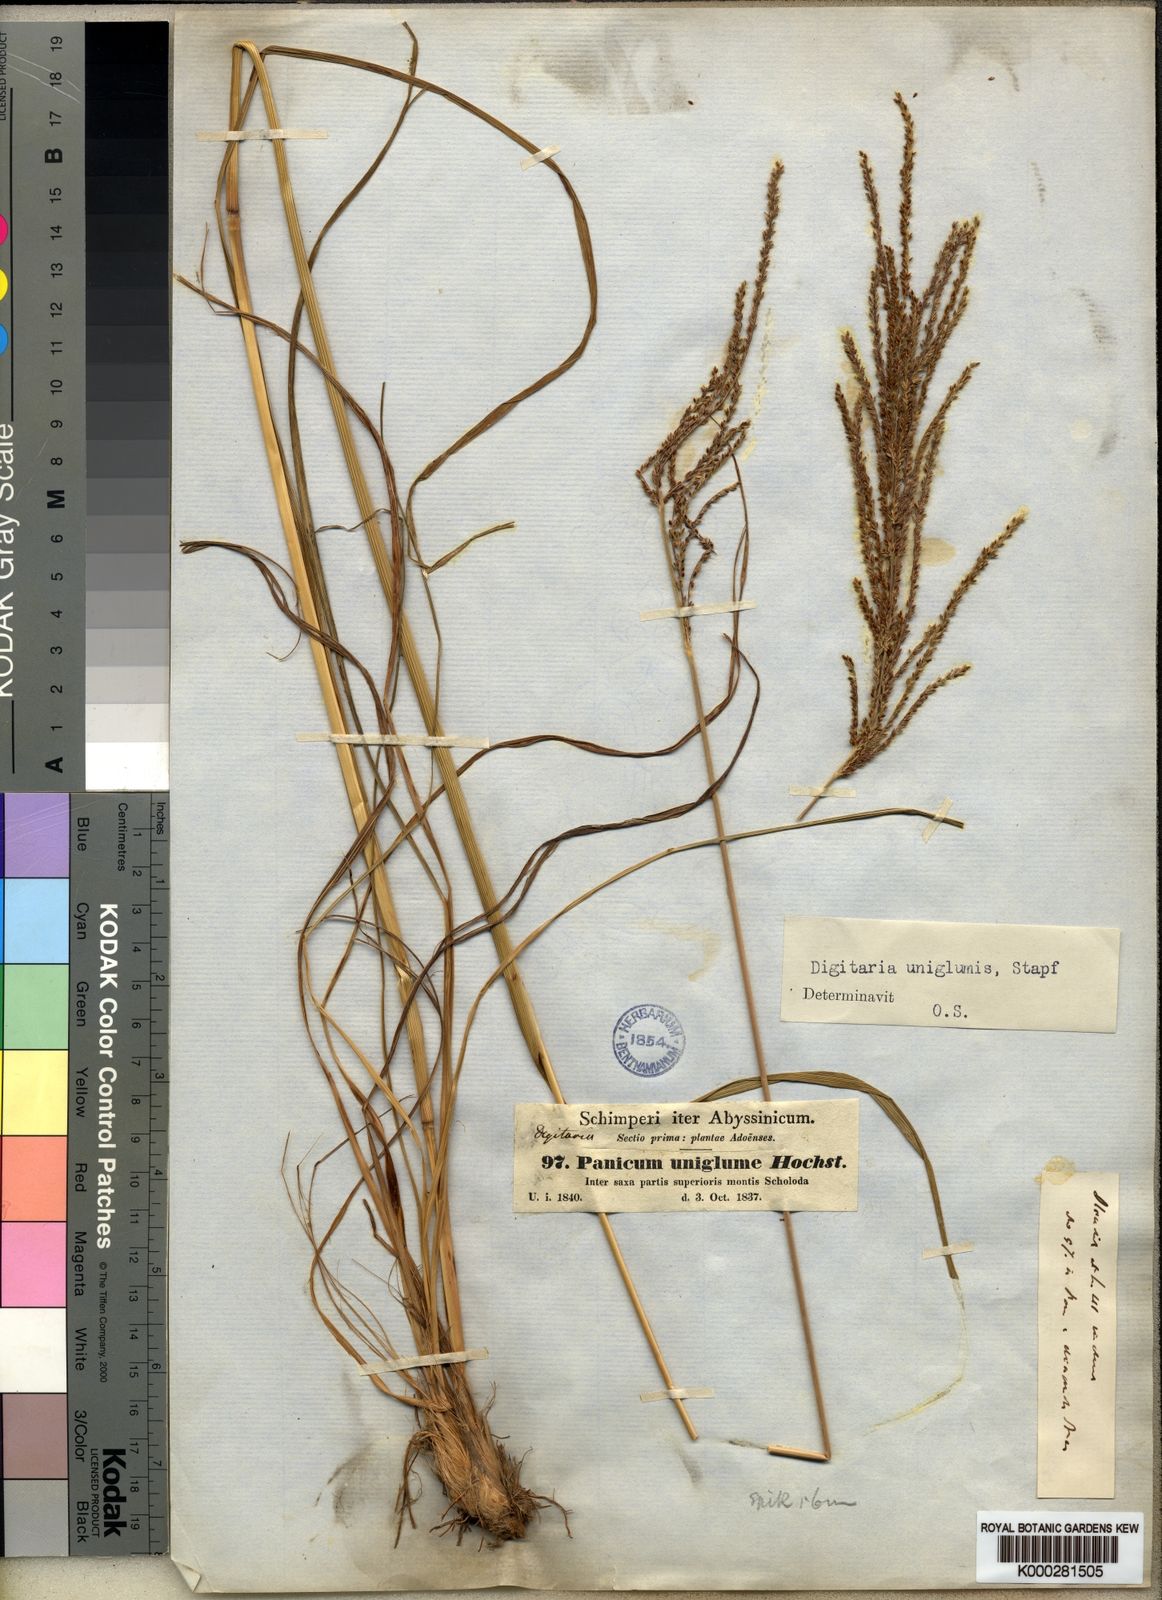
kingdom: Plantae
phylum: Tracheophyta
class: Liliopsida
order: Poales
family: Poaceae
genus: Digitaria
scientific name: Digitaria diagonalis
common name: Brown-seed finger grass
